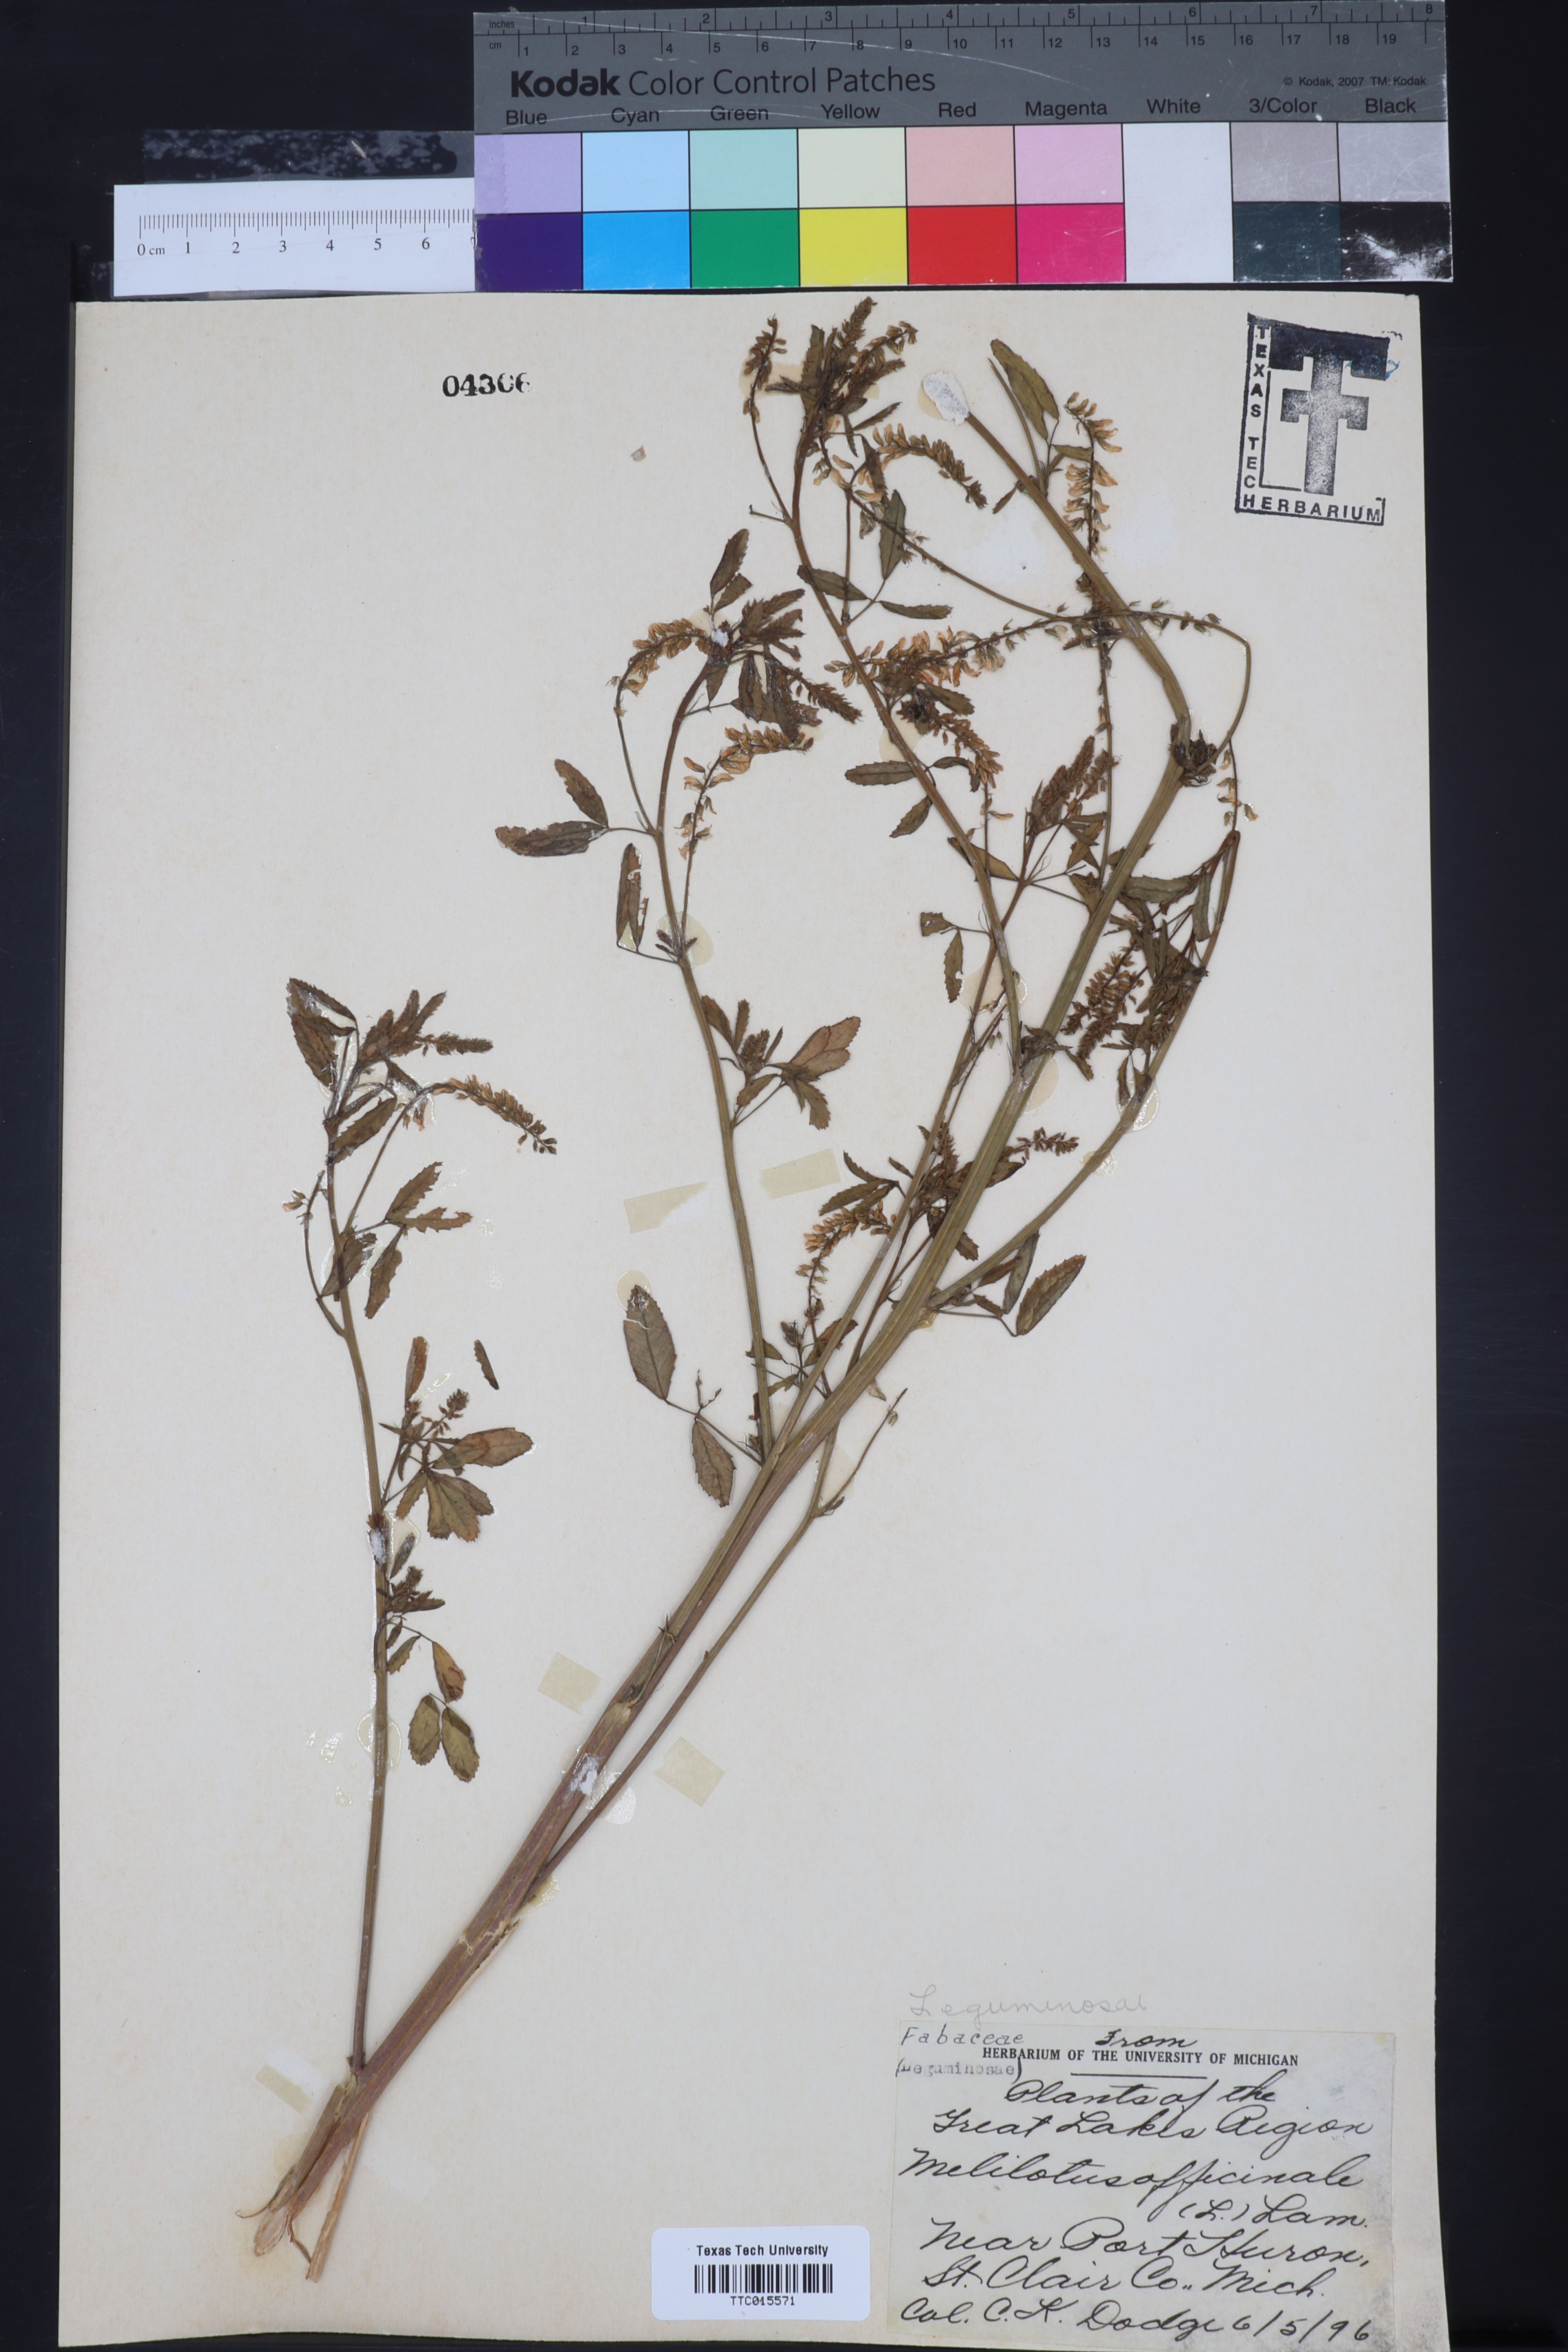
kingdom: Plantae
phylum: Tracheophyta
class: Magnoliopsida
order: Fabales
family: Fabaceae
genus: Melilotus
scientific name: Melilotus officinalis
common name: Sweetclover
